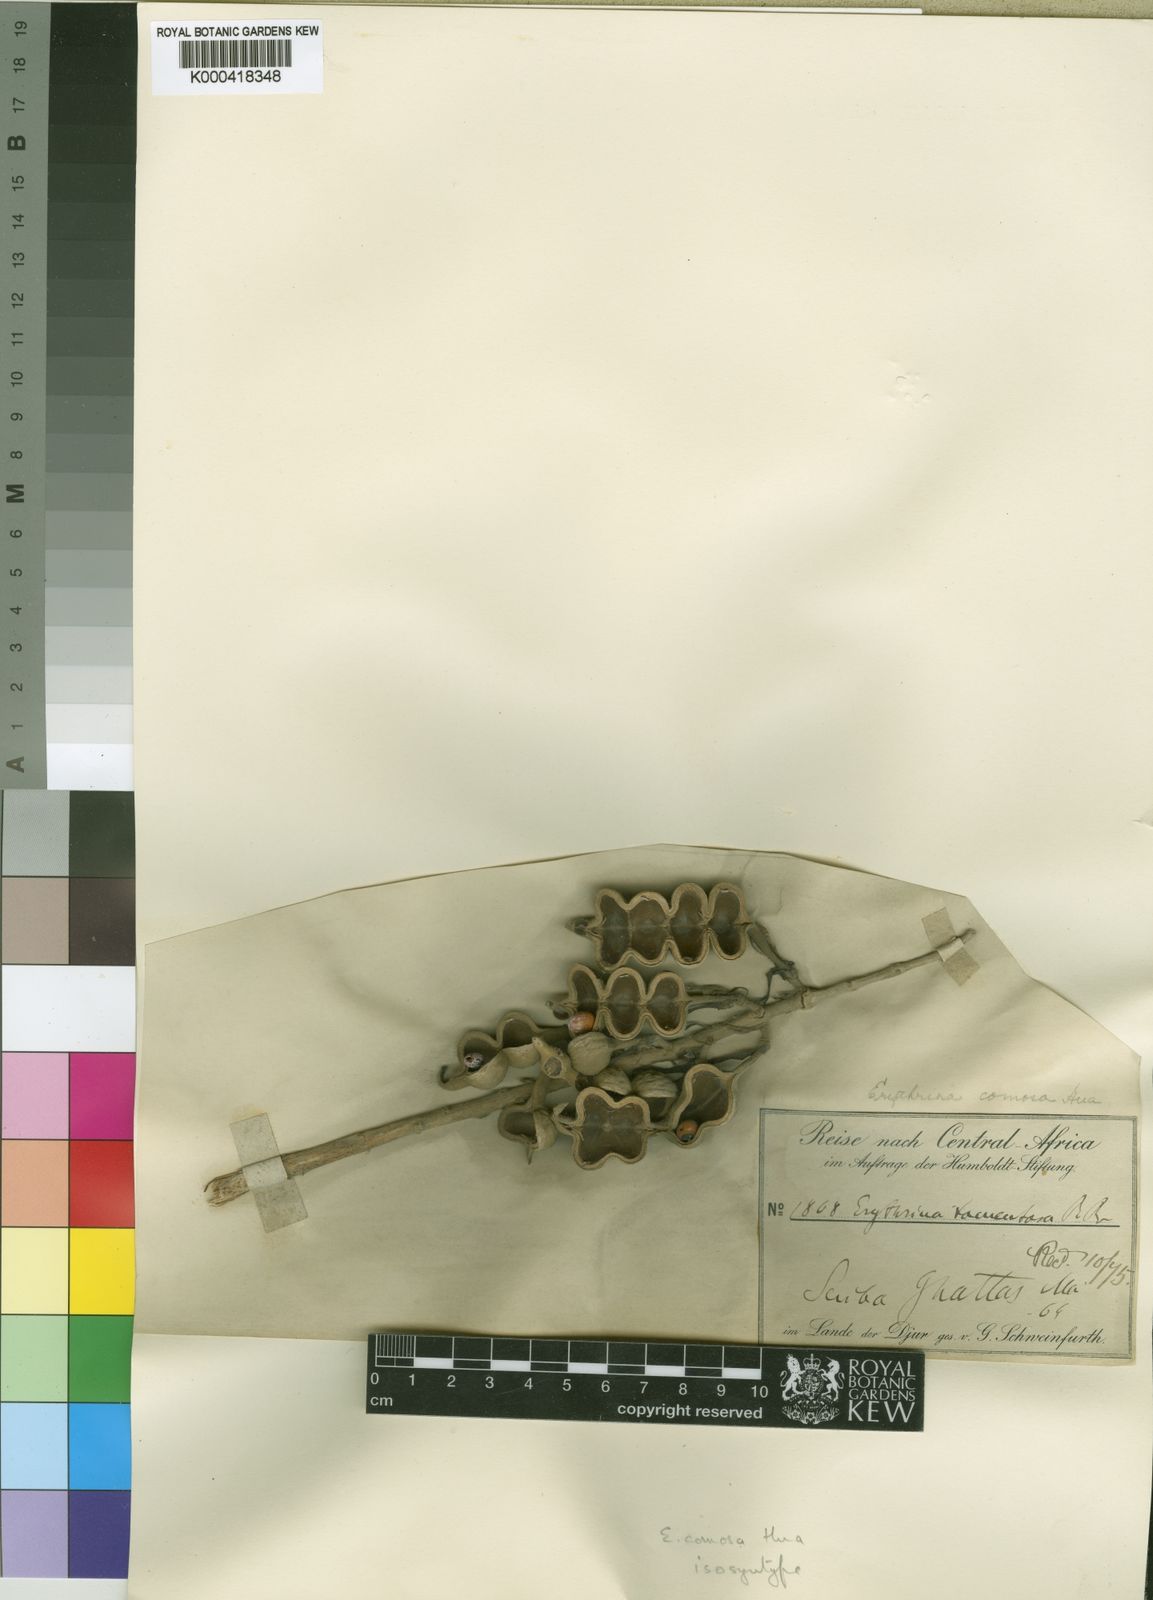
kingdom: Plantae
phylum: Tracheophyta
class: Magnoliopsida
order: Fabales
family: Fabaceae
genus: Erythrina
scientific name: Erythrina
